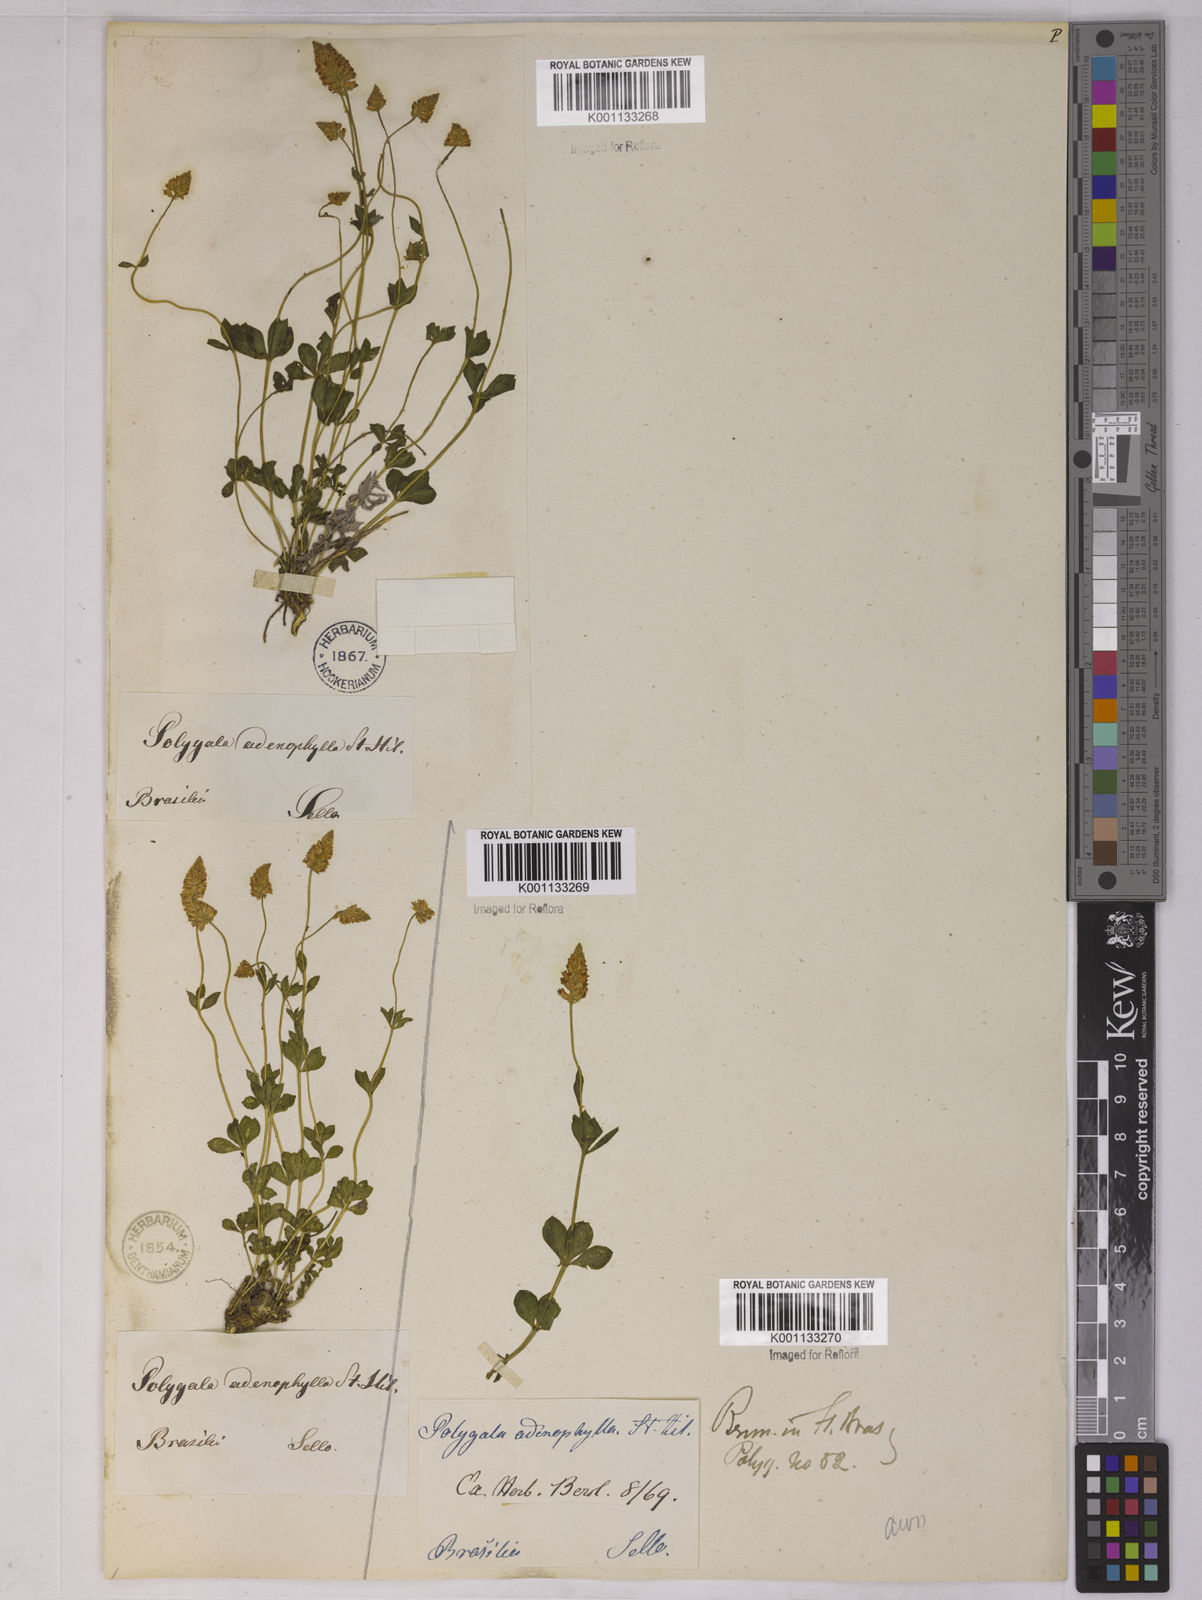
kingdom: Plantae
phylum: Tracheophyta
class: Magnoliopsida
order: Fabales
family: Polygalaceae
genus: Polygala
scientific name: Polygala adenophylla
